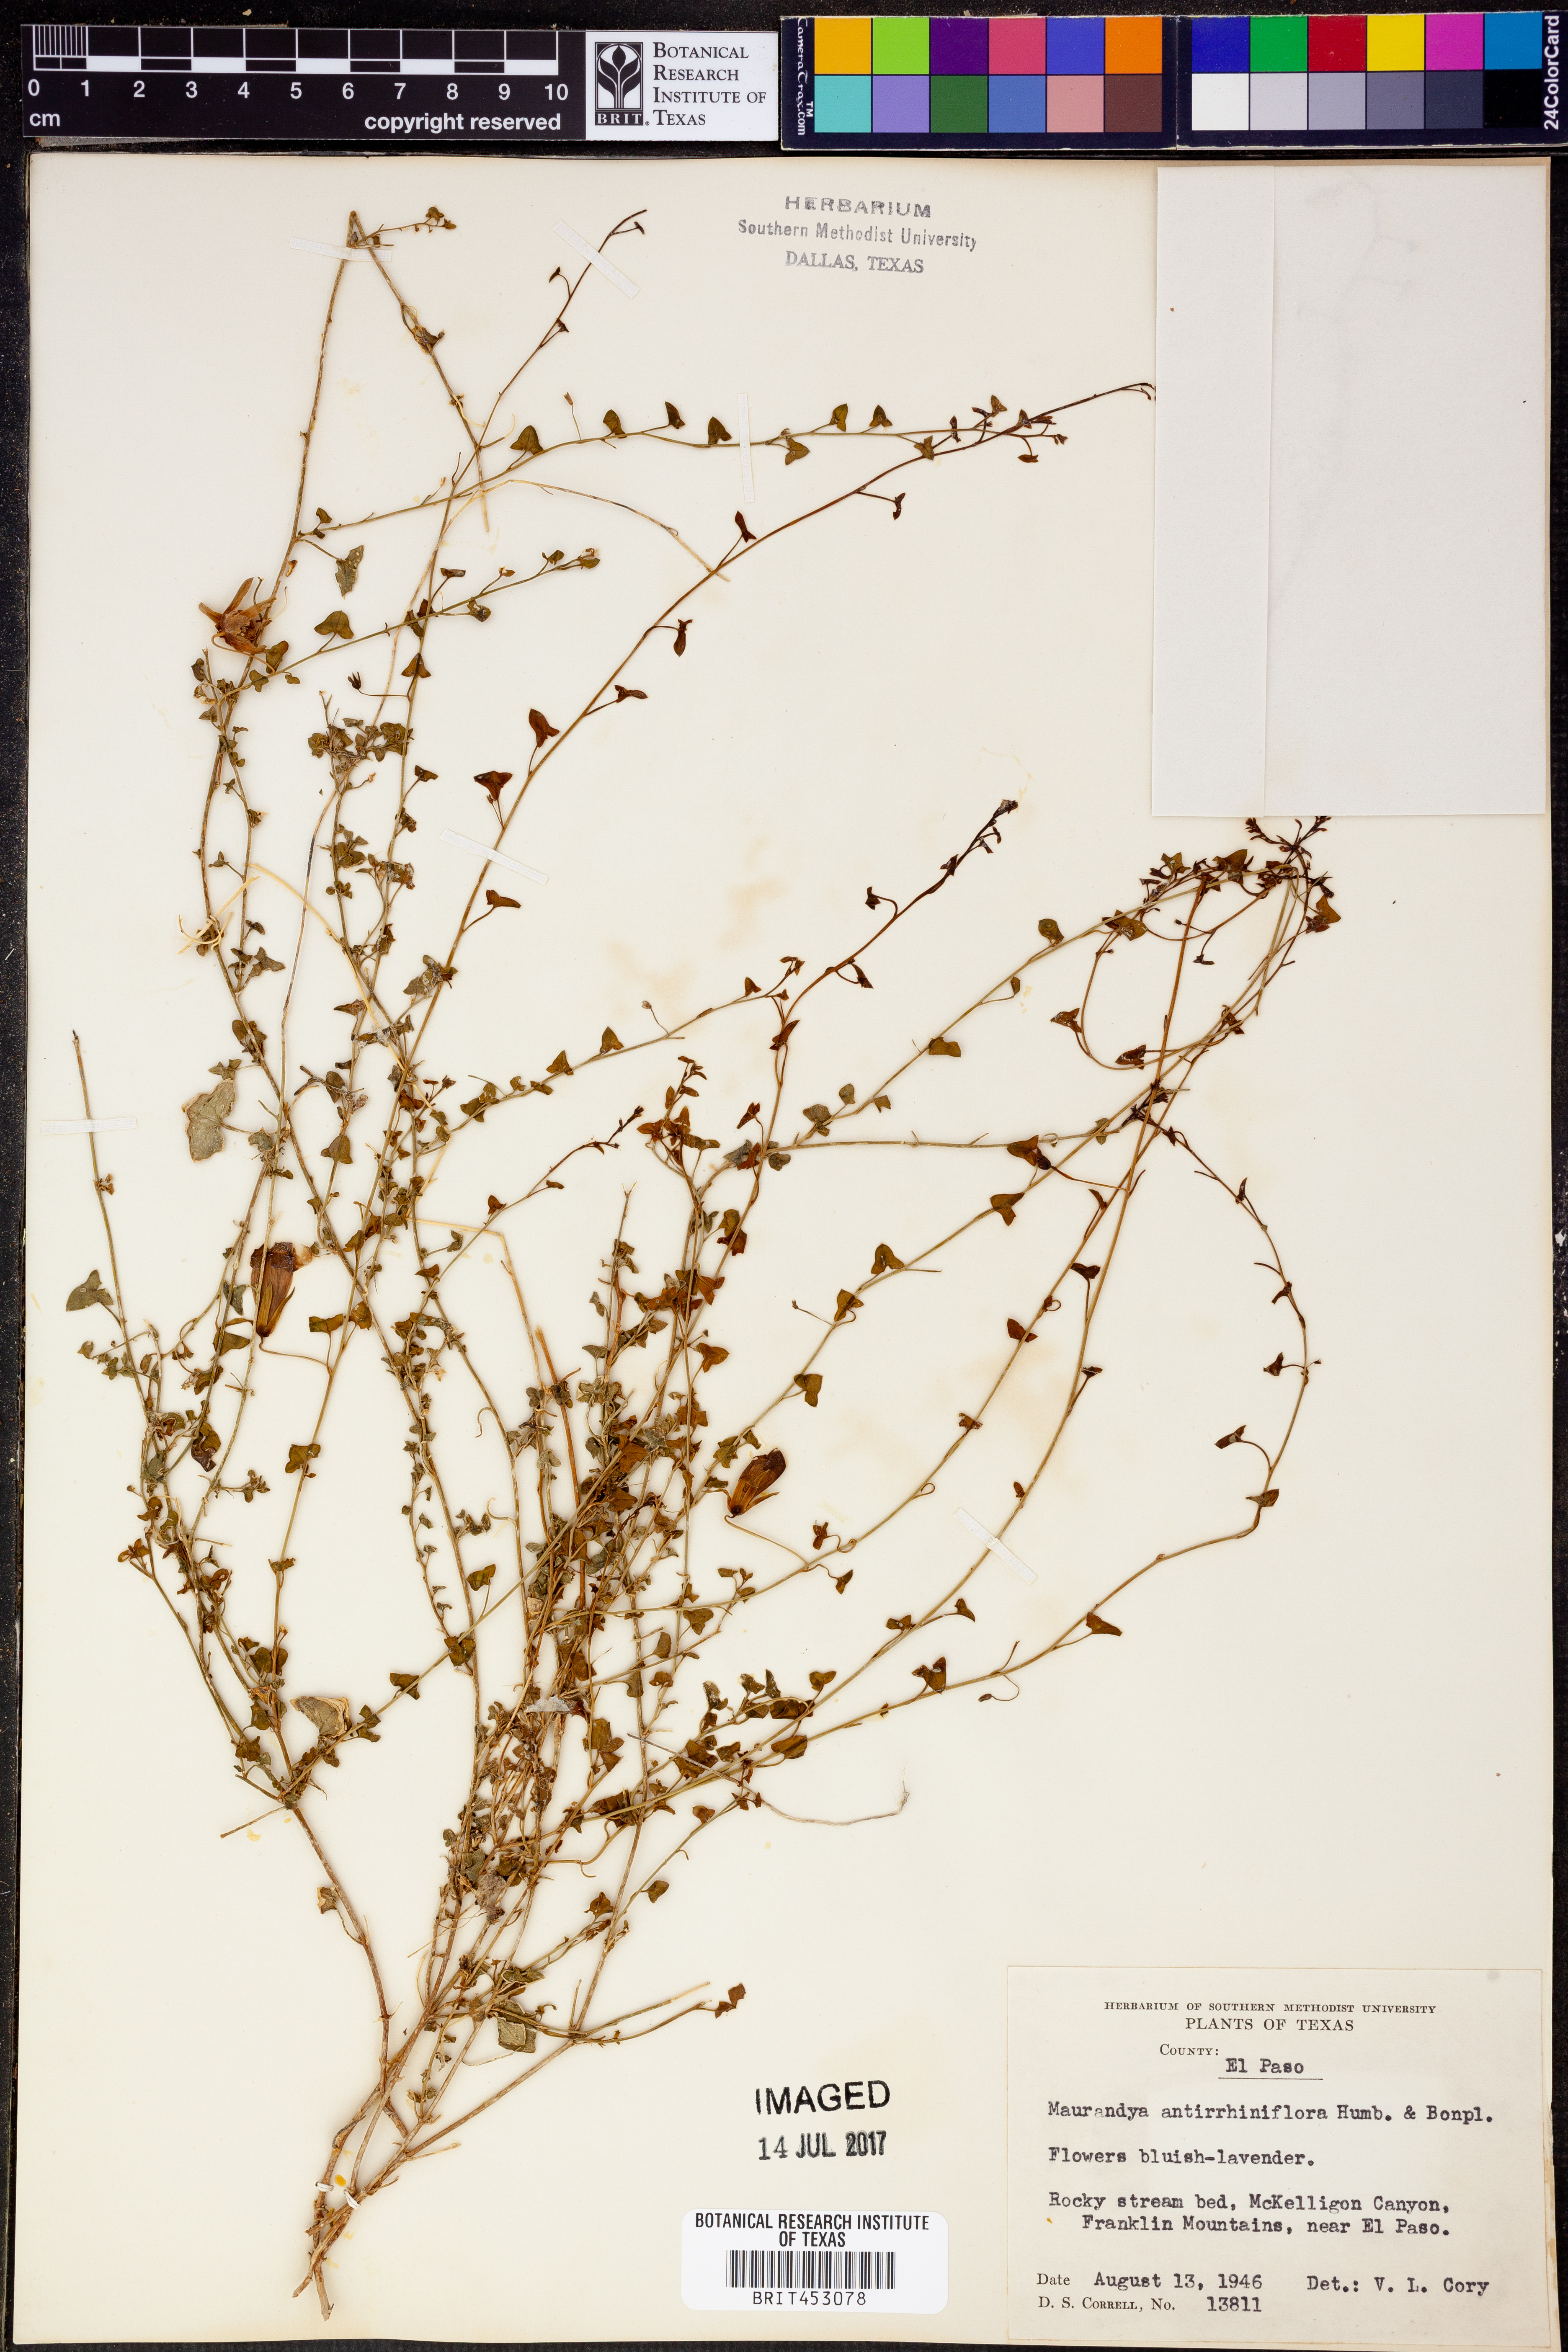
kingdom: Plantae
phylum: Tracheophyta
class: Magnoliopsida
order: Lamiales
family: Plantaginaceae
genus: Maurandella
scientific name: Maurandella antirrhiniflora
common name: Violet twining-snapdragon
